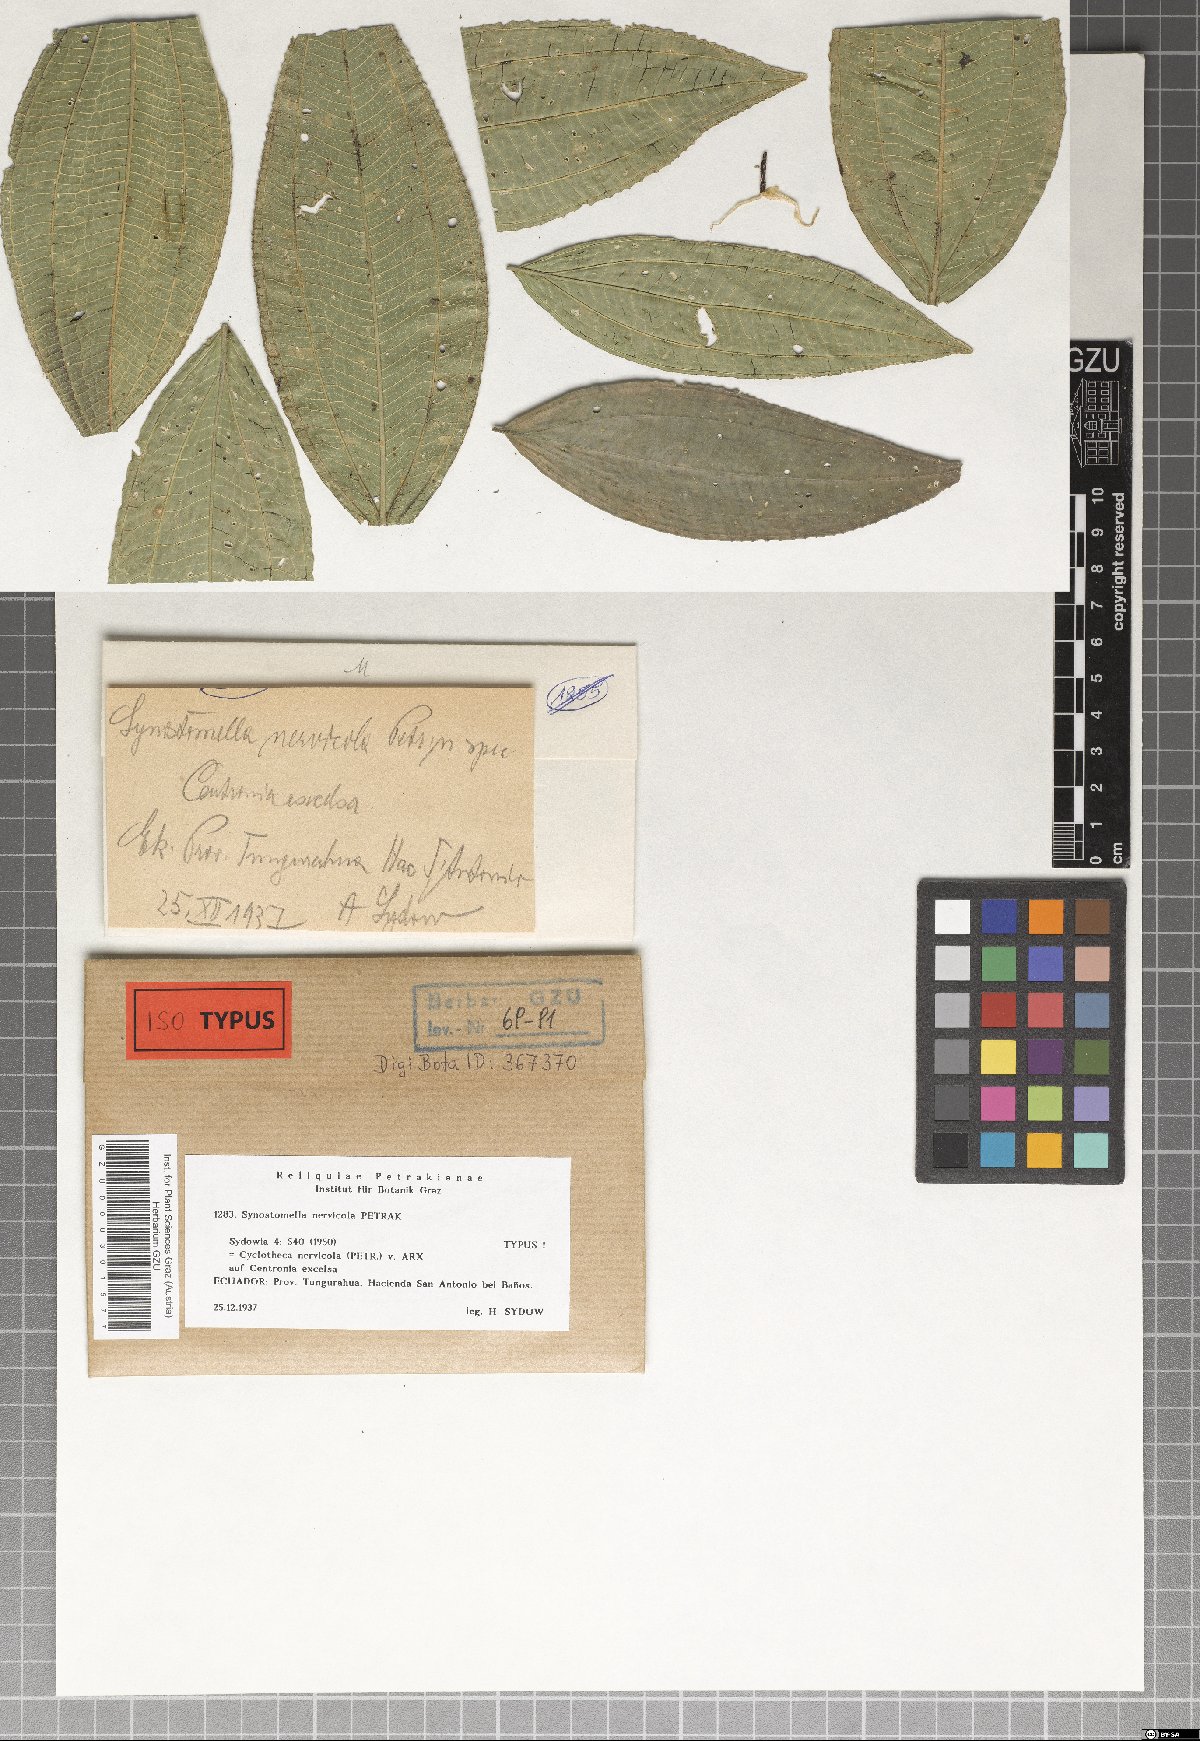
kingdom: Fungi
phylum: Ascomycota
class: Dothideomycetes
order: Microthyriales
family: Microthyriaceae
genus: Cyclotheca
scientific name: Cyclotheca nervicola
